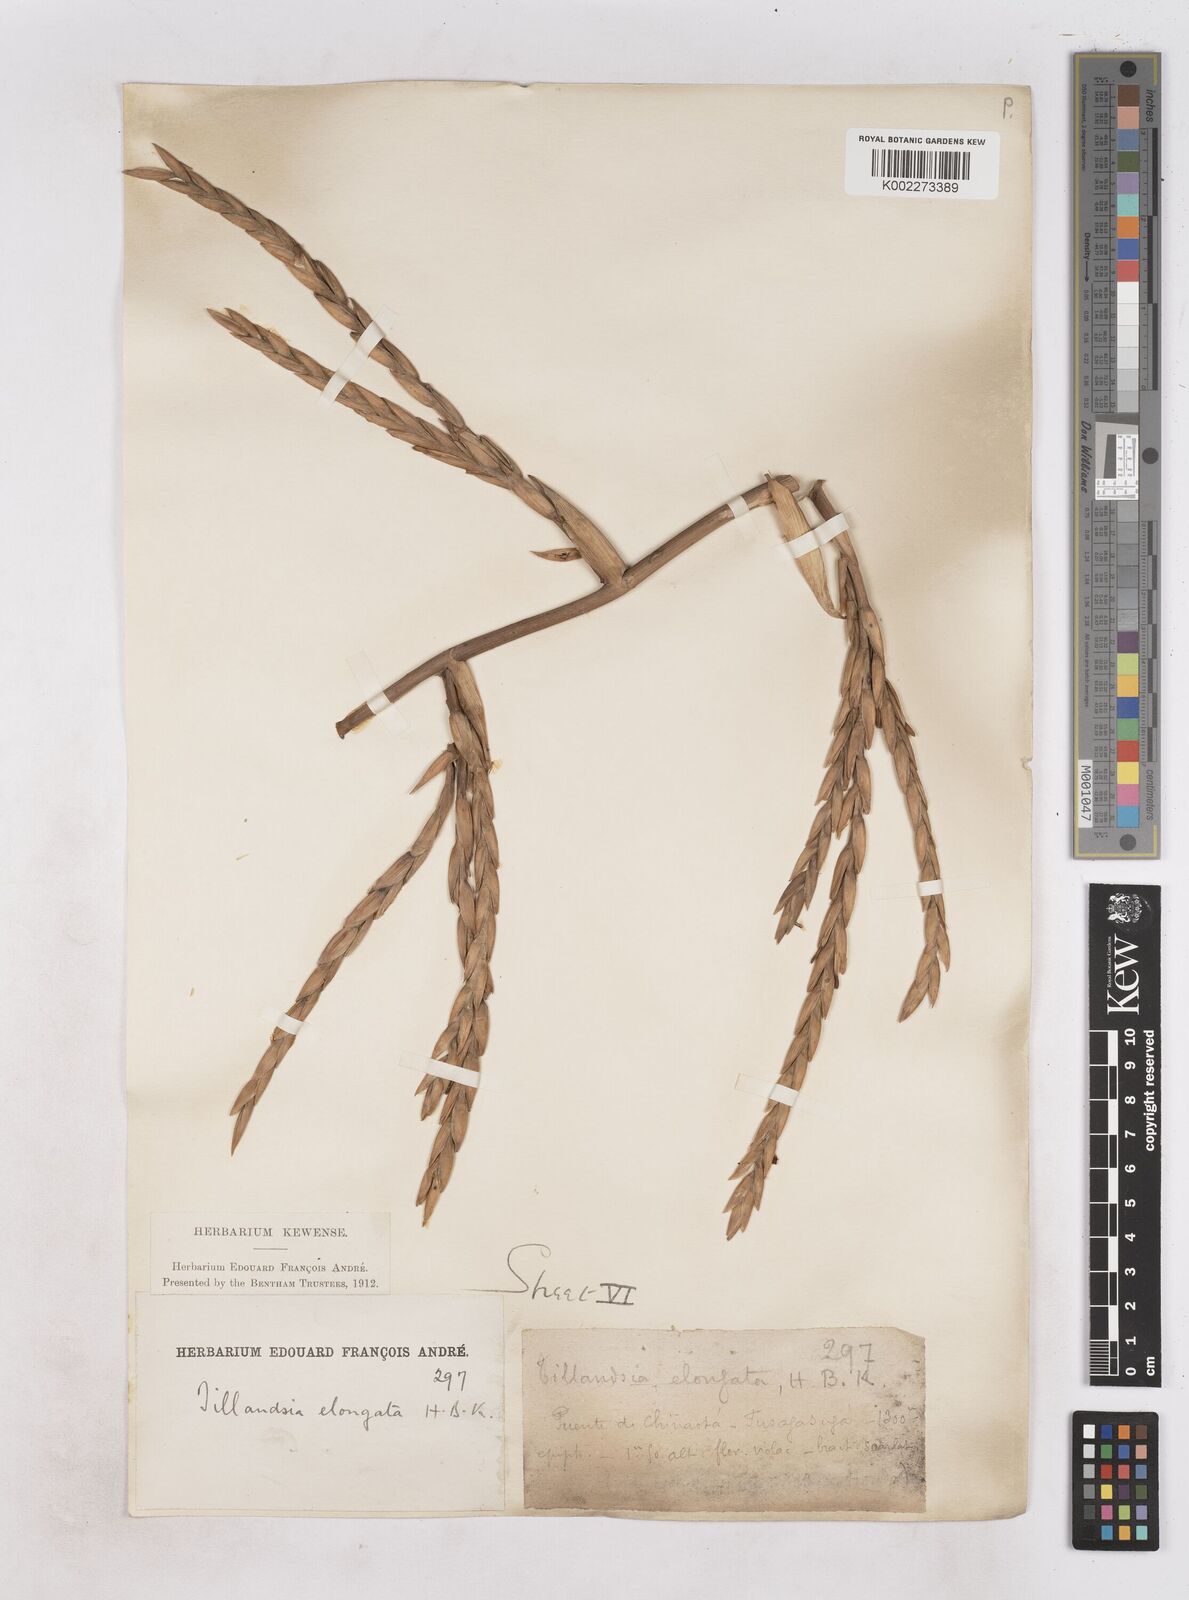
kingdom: Plantae
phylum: Tracheophyta
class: Liliopsida
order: Poales
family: Bromeliaceae
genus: Tillandsia
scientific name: Tillandsia elongata
